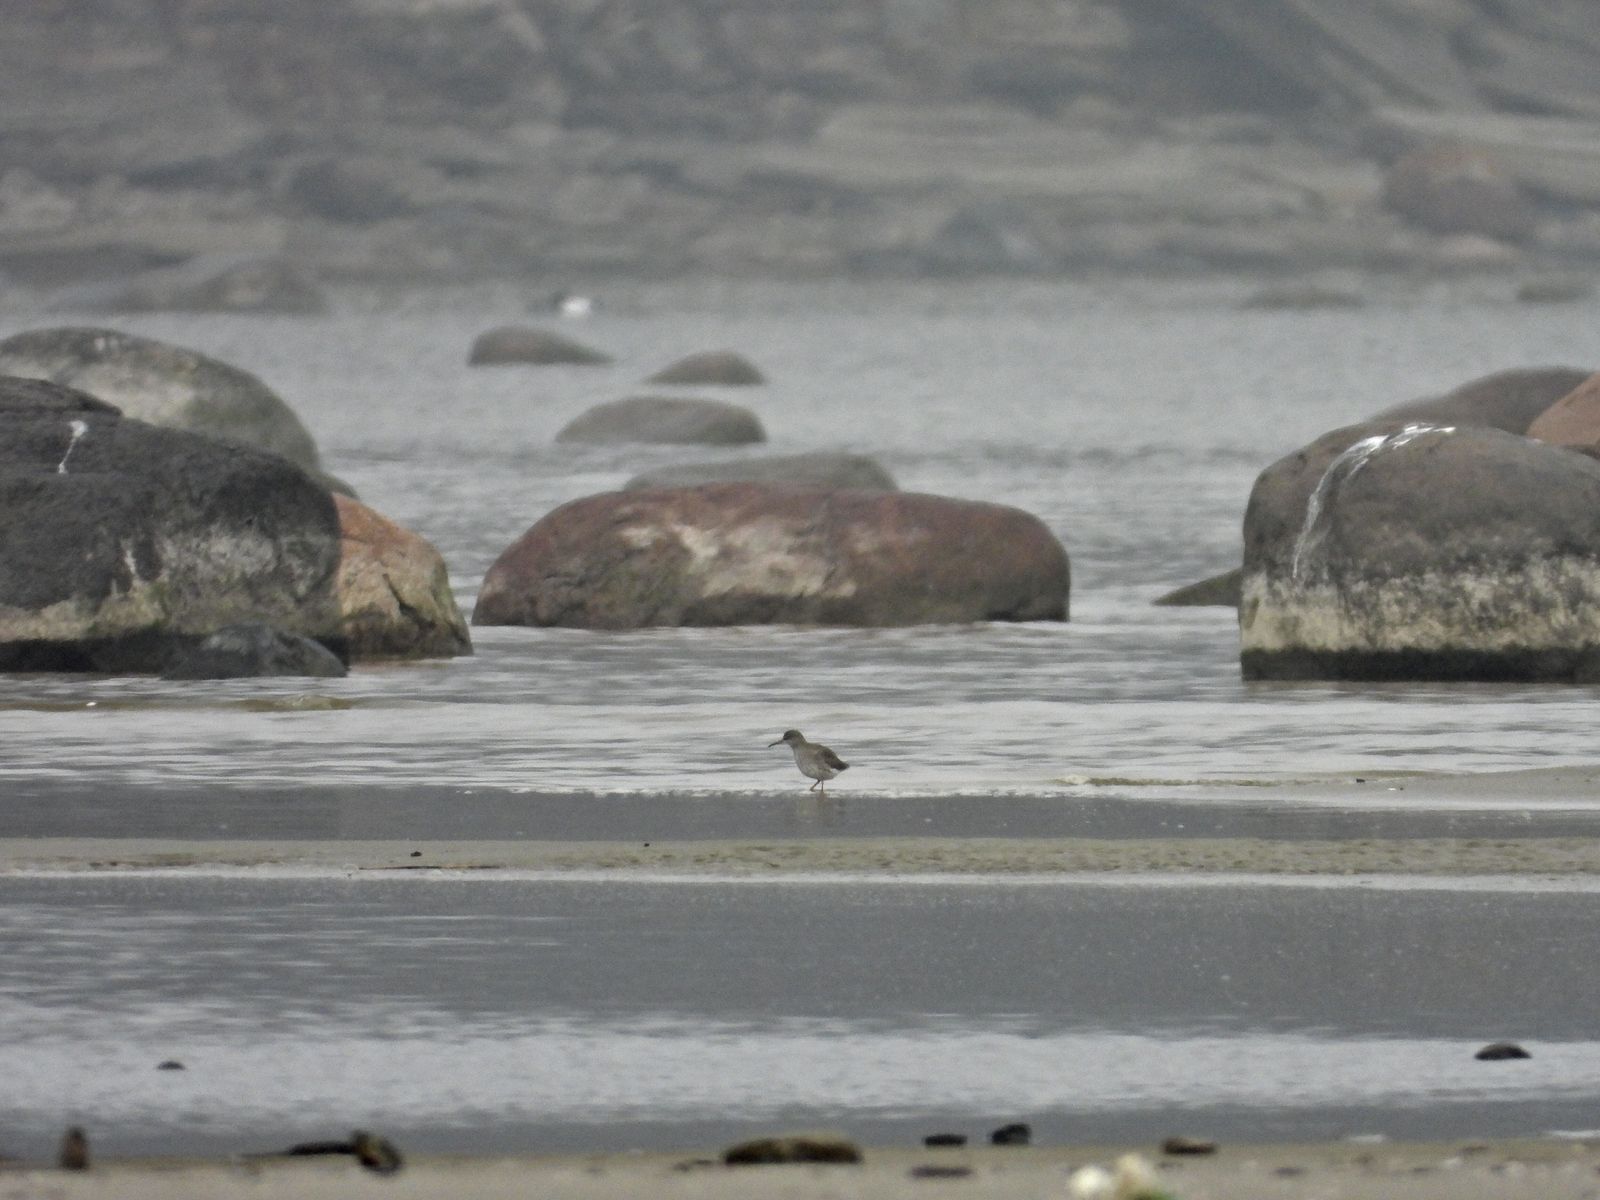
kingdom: Animalia
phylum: Chordata
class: Aves
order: Charadriiformes
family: Scolopacidae
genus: Tringa
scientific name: Tringa totanus
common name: Common redshank
